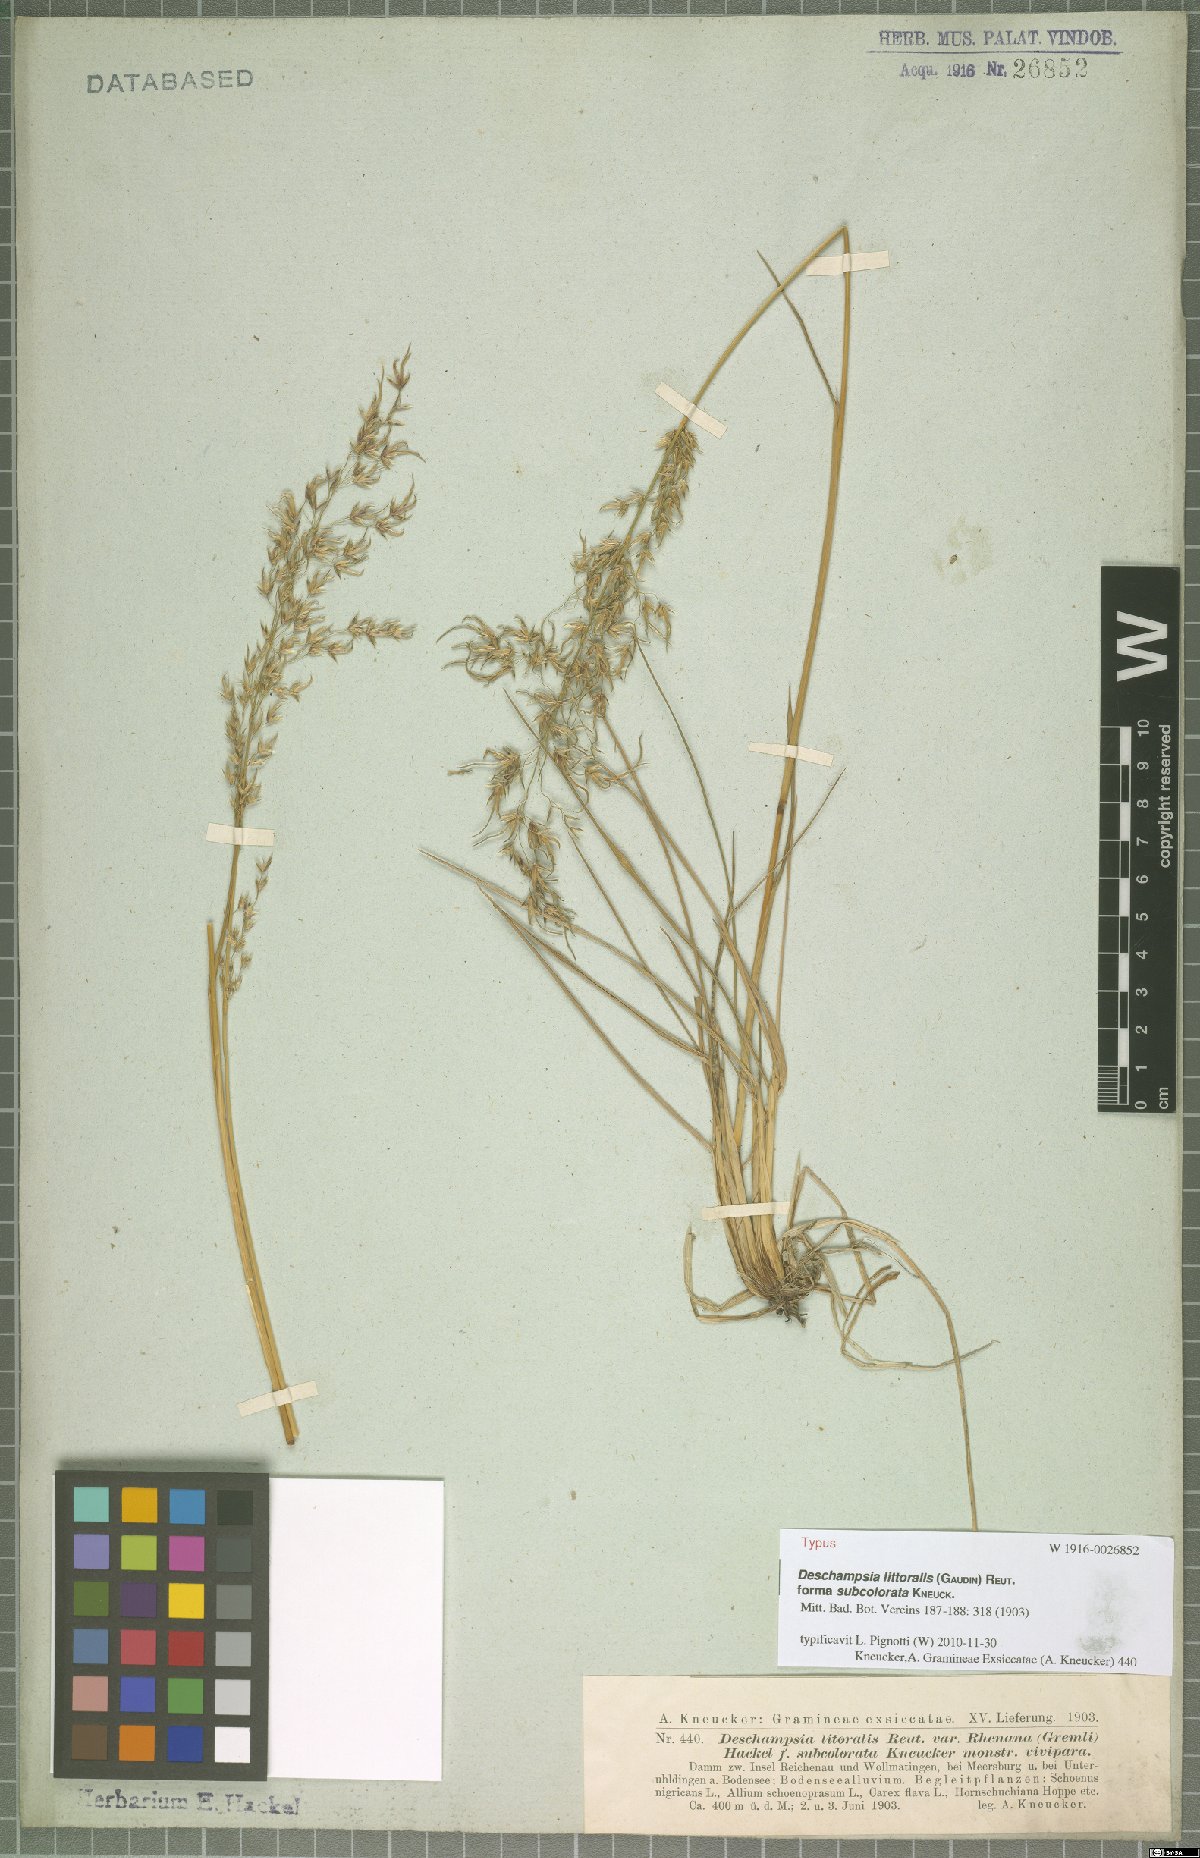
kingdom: Plantae
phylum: Tracheophyta
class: Liliopsida
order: Poales
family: Poaceae
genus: Deschampsia
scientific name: Deschampsia cespitosa
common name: Tufted hair-grass
